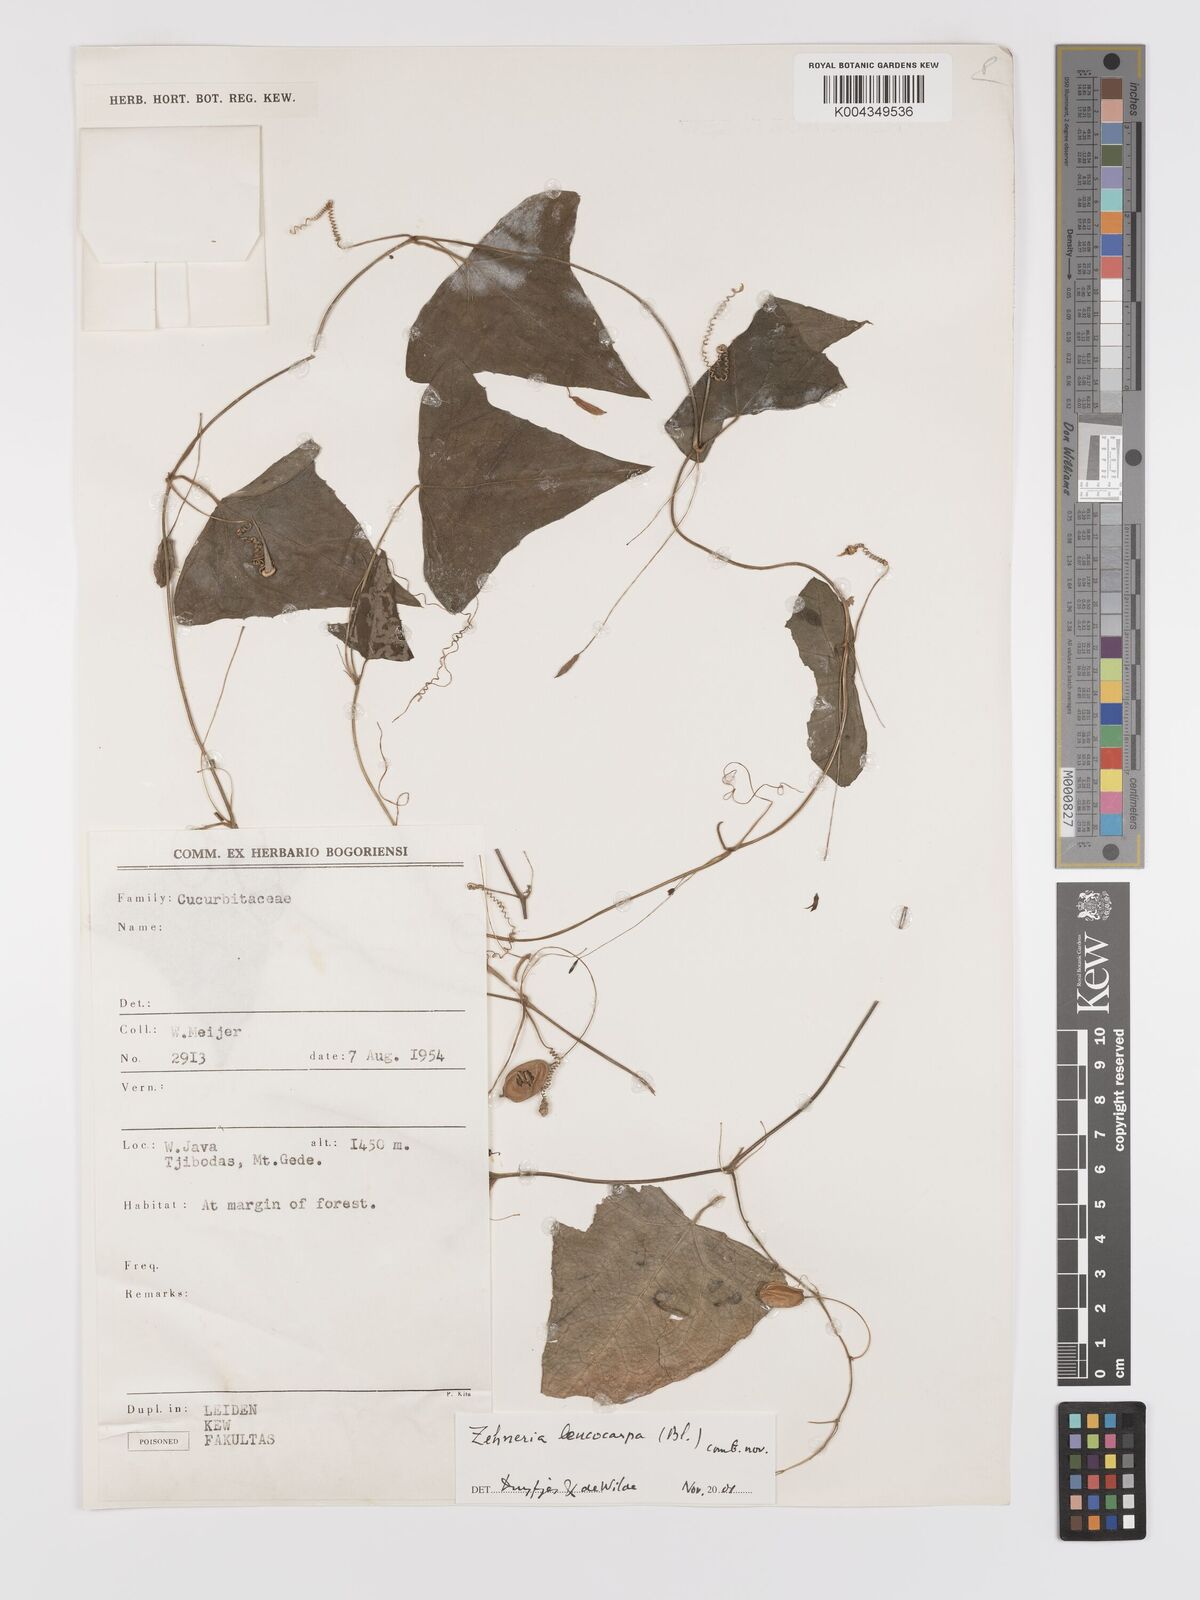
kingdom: Plantae
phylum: Tracheophyta
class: Magnoliopsida
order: Cucurbitales
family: Cucurbitaceae
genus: Zehneria
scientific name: Zehneria leucocarpa
